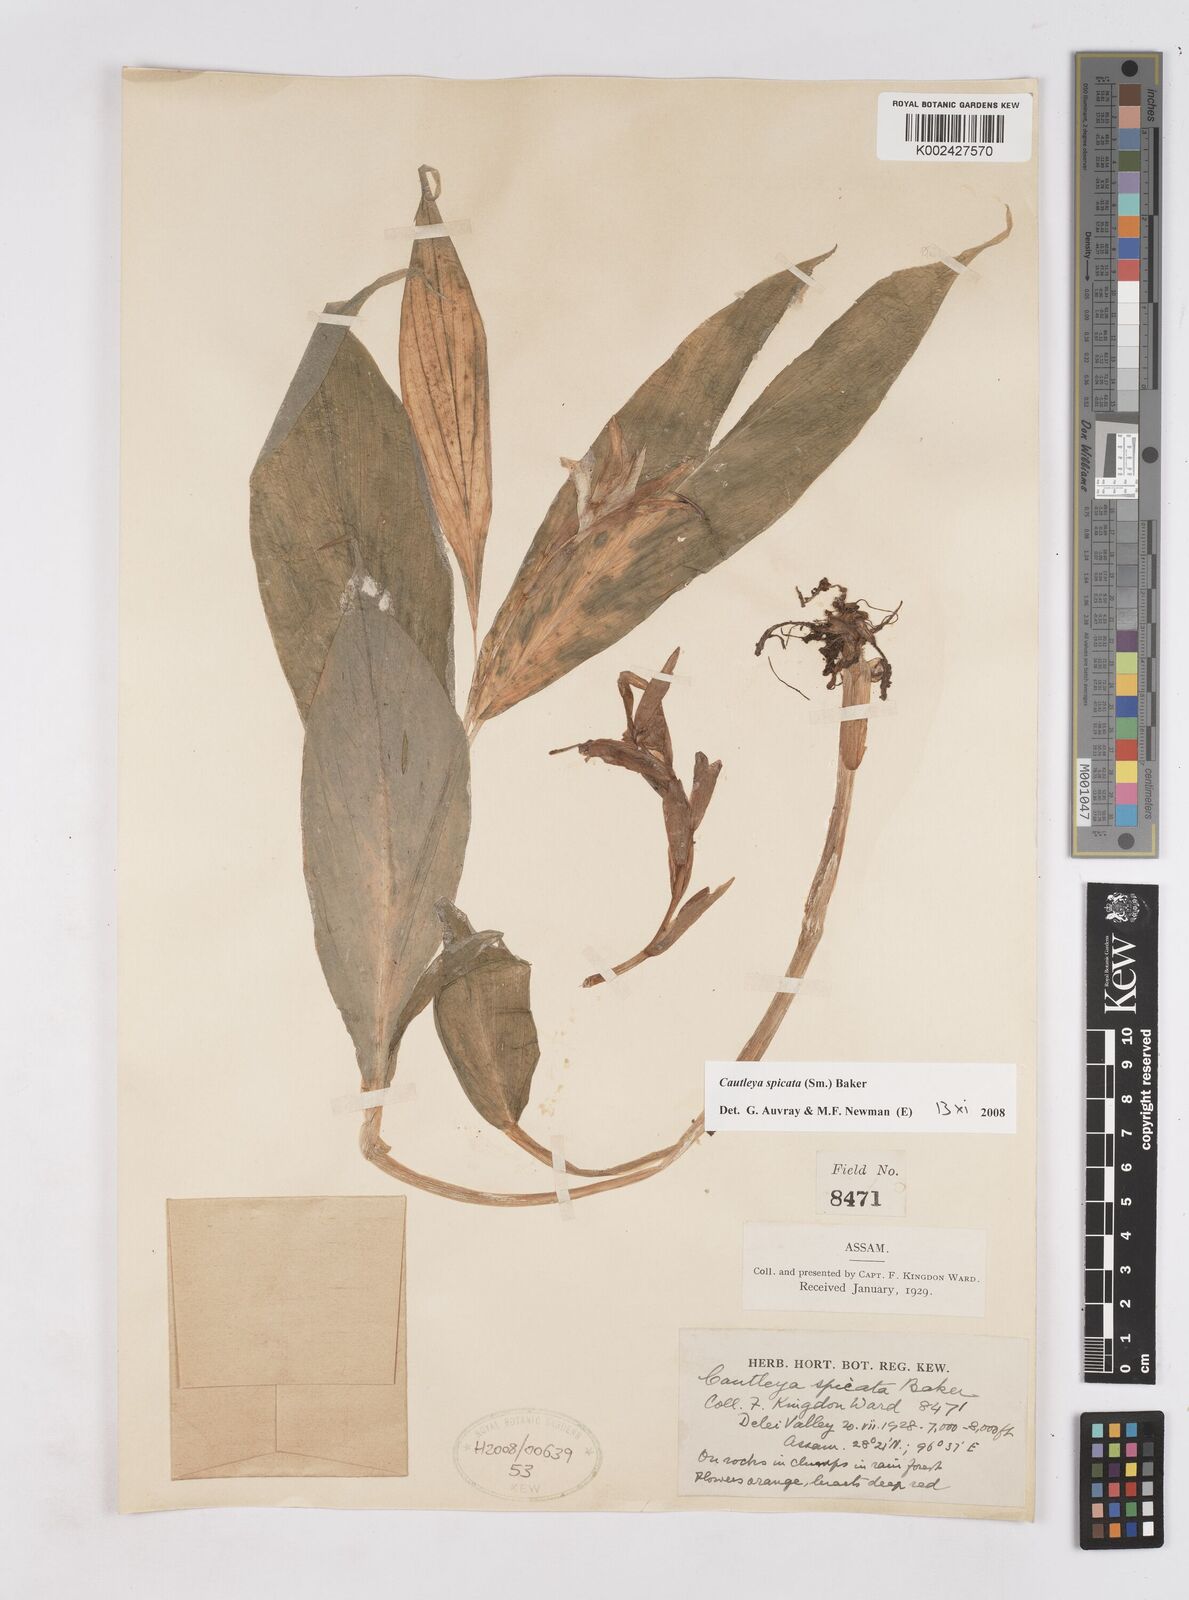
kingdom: Plantae
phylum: Tracheophyta
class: Liliopsida
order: Zingiberales
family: Zingiberaceae
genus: Cautleya
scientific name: Cautleya
